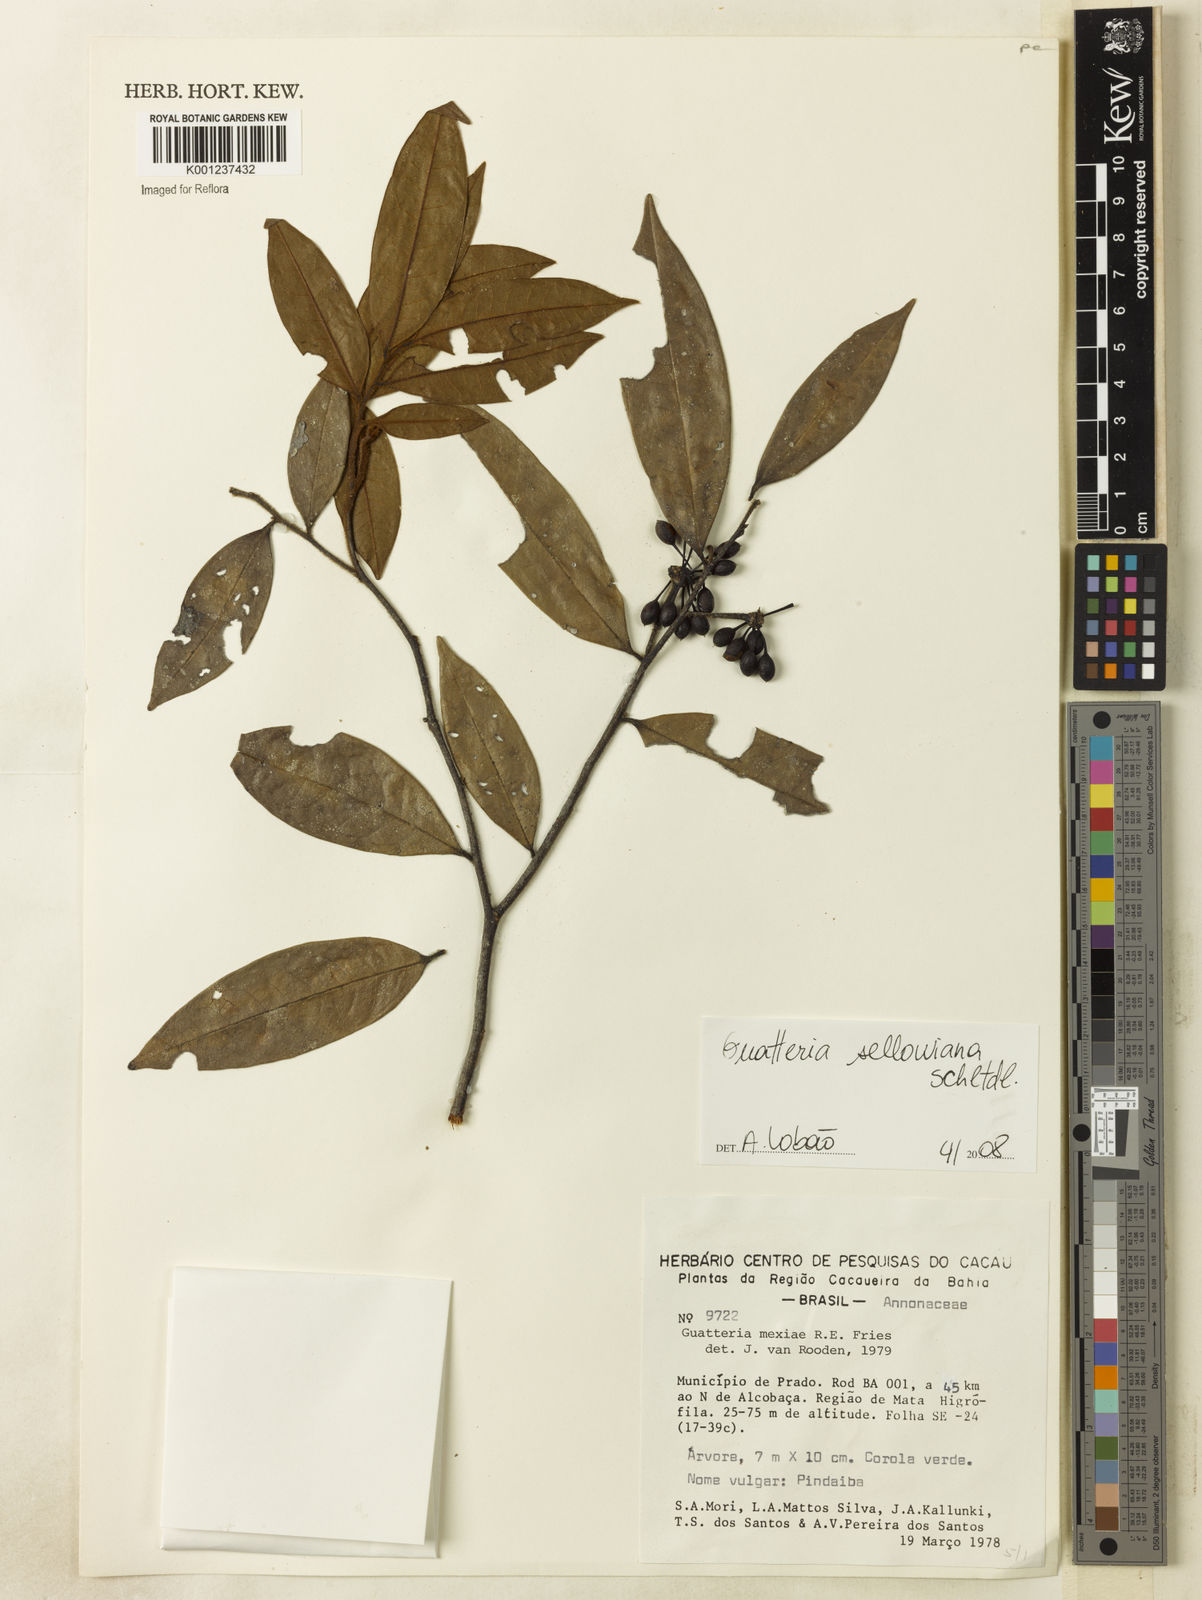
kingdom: Plantae
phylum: Tracheophyta
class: Magnoliopsida
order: Magnoliales
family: Annonaceae
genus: Guatteria
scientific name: Guatteria sellowiana
